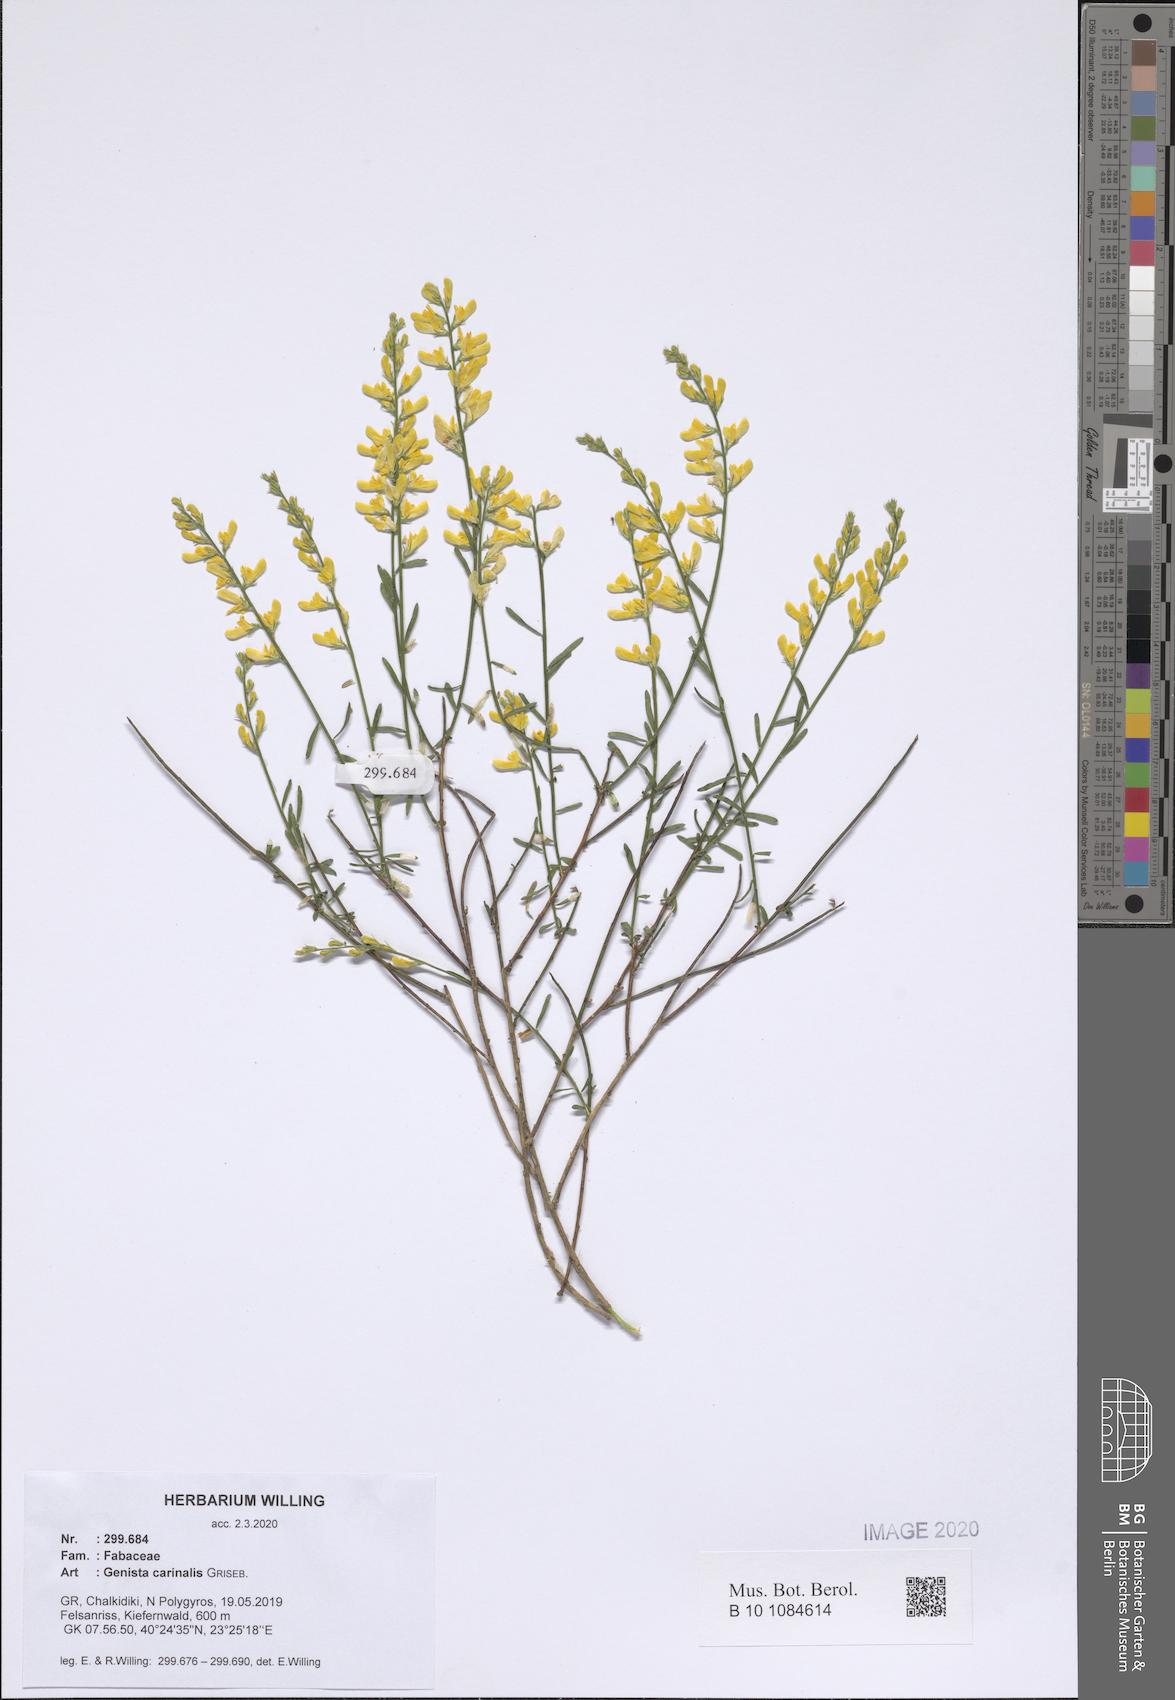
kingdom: Plantae
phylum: Tracheophyta
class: Magnoliopsida
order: Fabales
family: Fabaceae
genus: Genista
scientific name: Genista carinalis
